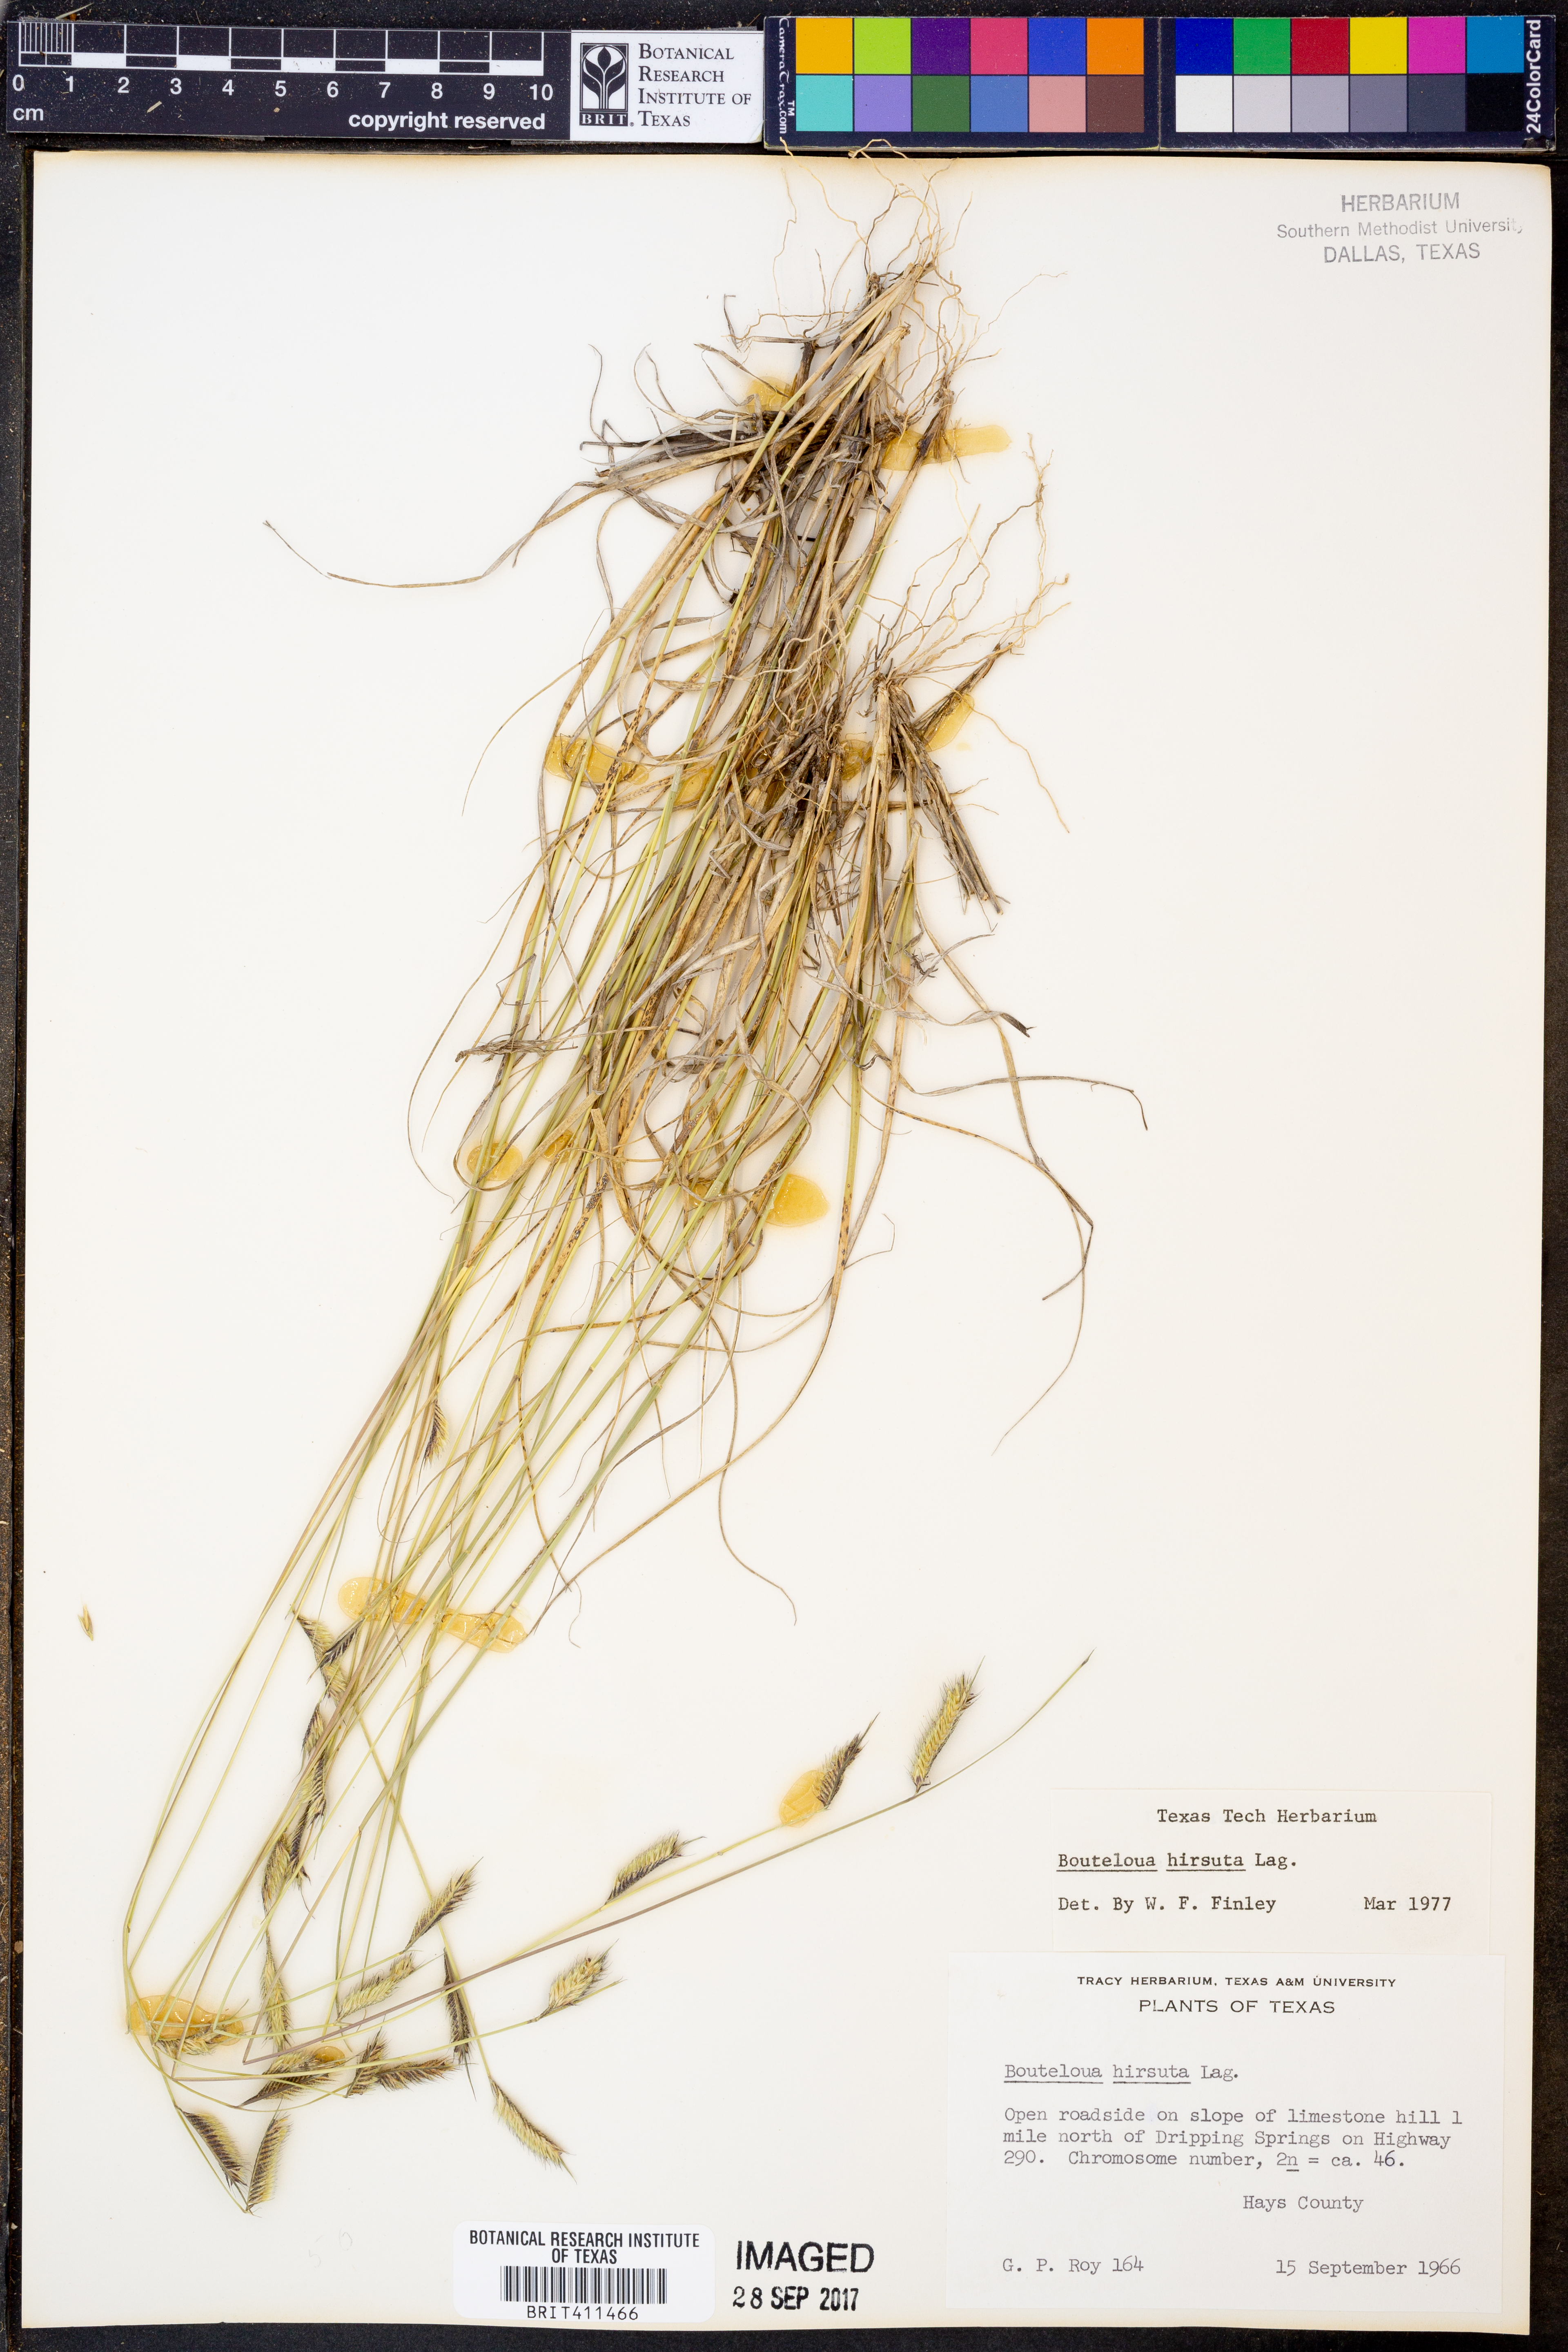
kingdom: Plantae
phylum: Tracheophyta
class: Liliopsida
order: Poales
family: Poaceae
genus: Bouteloua
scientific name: Bouteloua hirsuta
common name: Hairy grama
